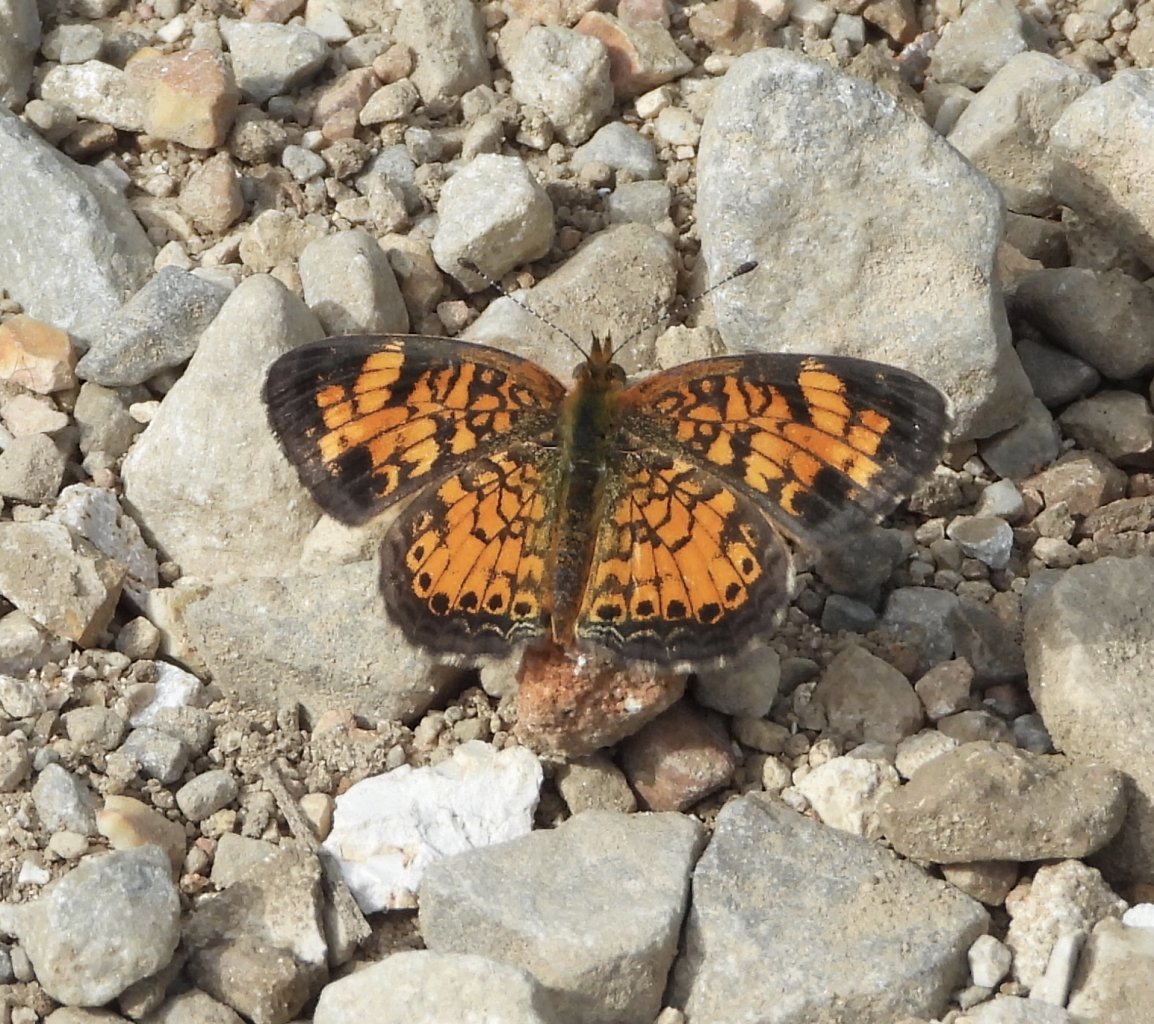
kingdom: Animalia
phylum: Arthropoda
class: Insecta
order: Lepidoptera
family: Nymphalidae
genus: Phyciodes
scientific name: Phyciodes tharos
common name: Pearl Crescent
